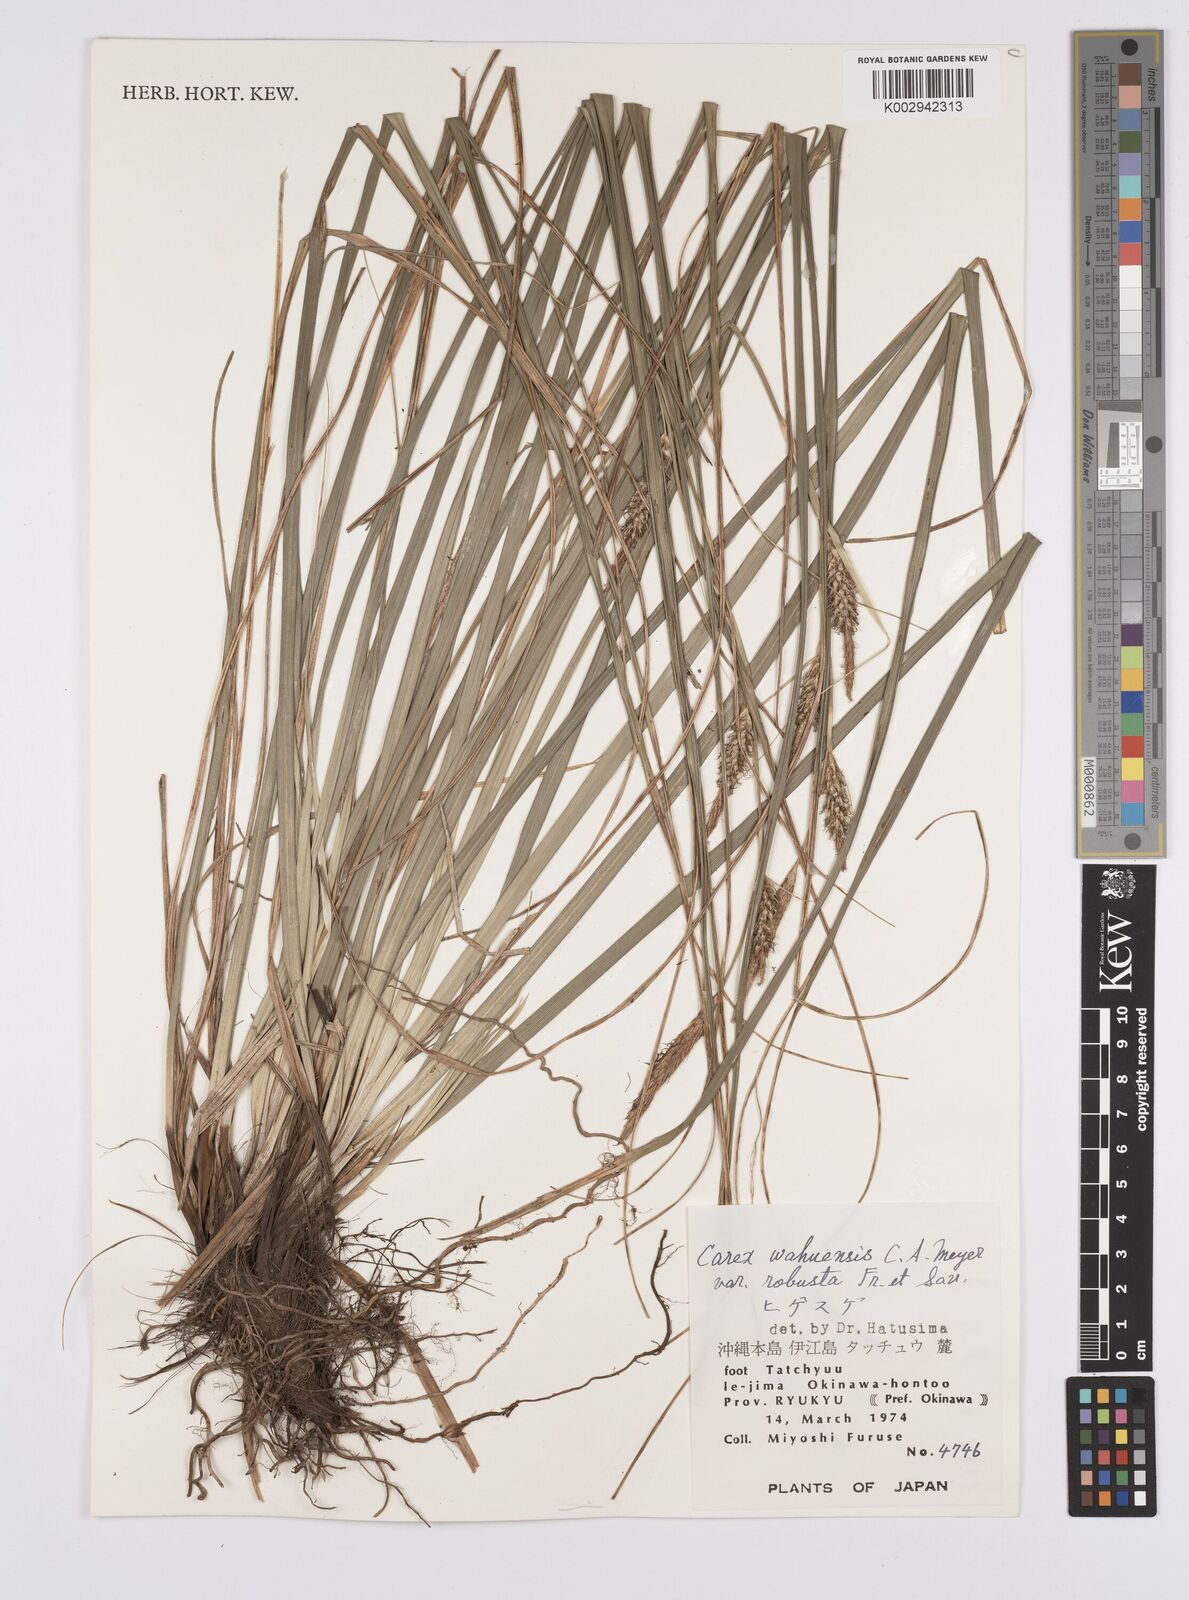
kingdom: Plantae
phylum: Tracheophyta
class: Liliopsida
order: Poales
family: Cyperaceae
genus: Carex
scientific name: Carex wahuensis
